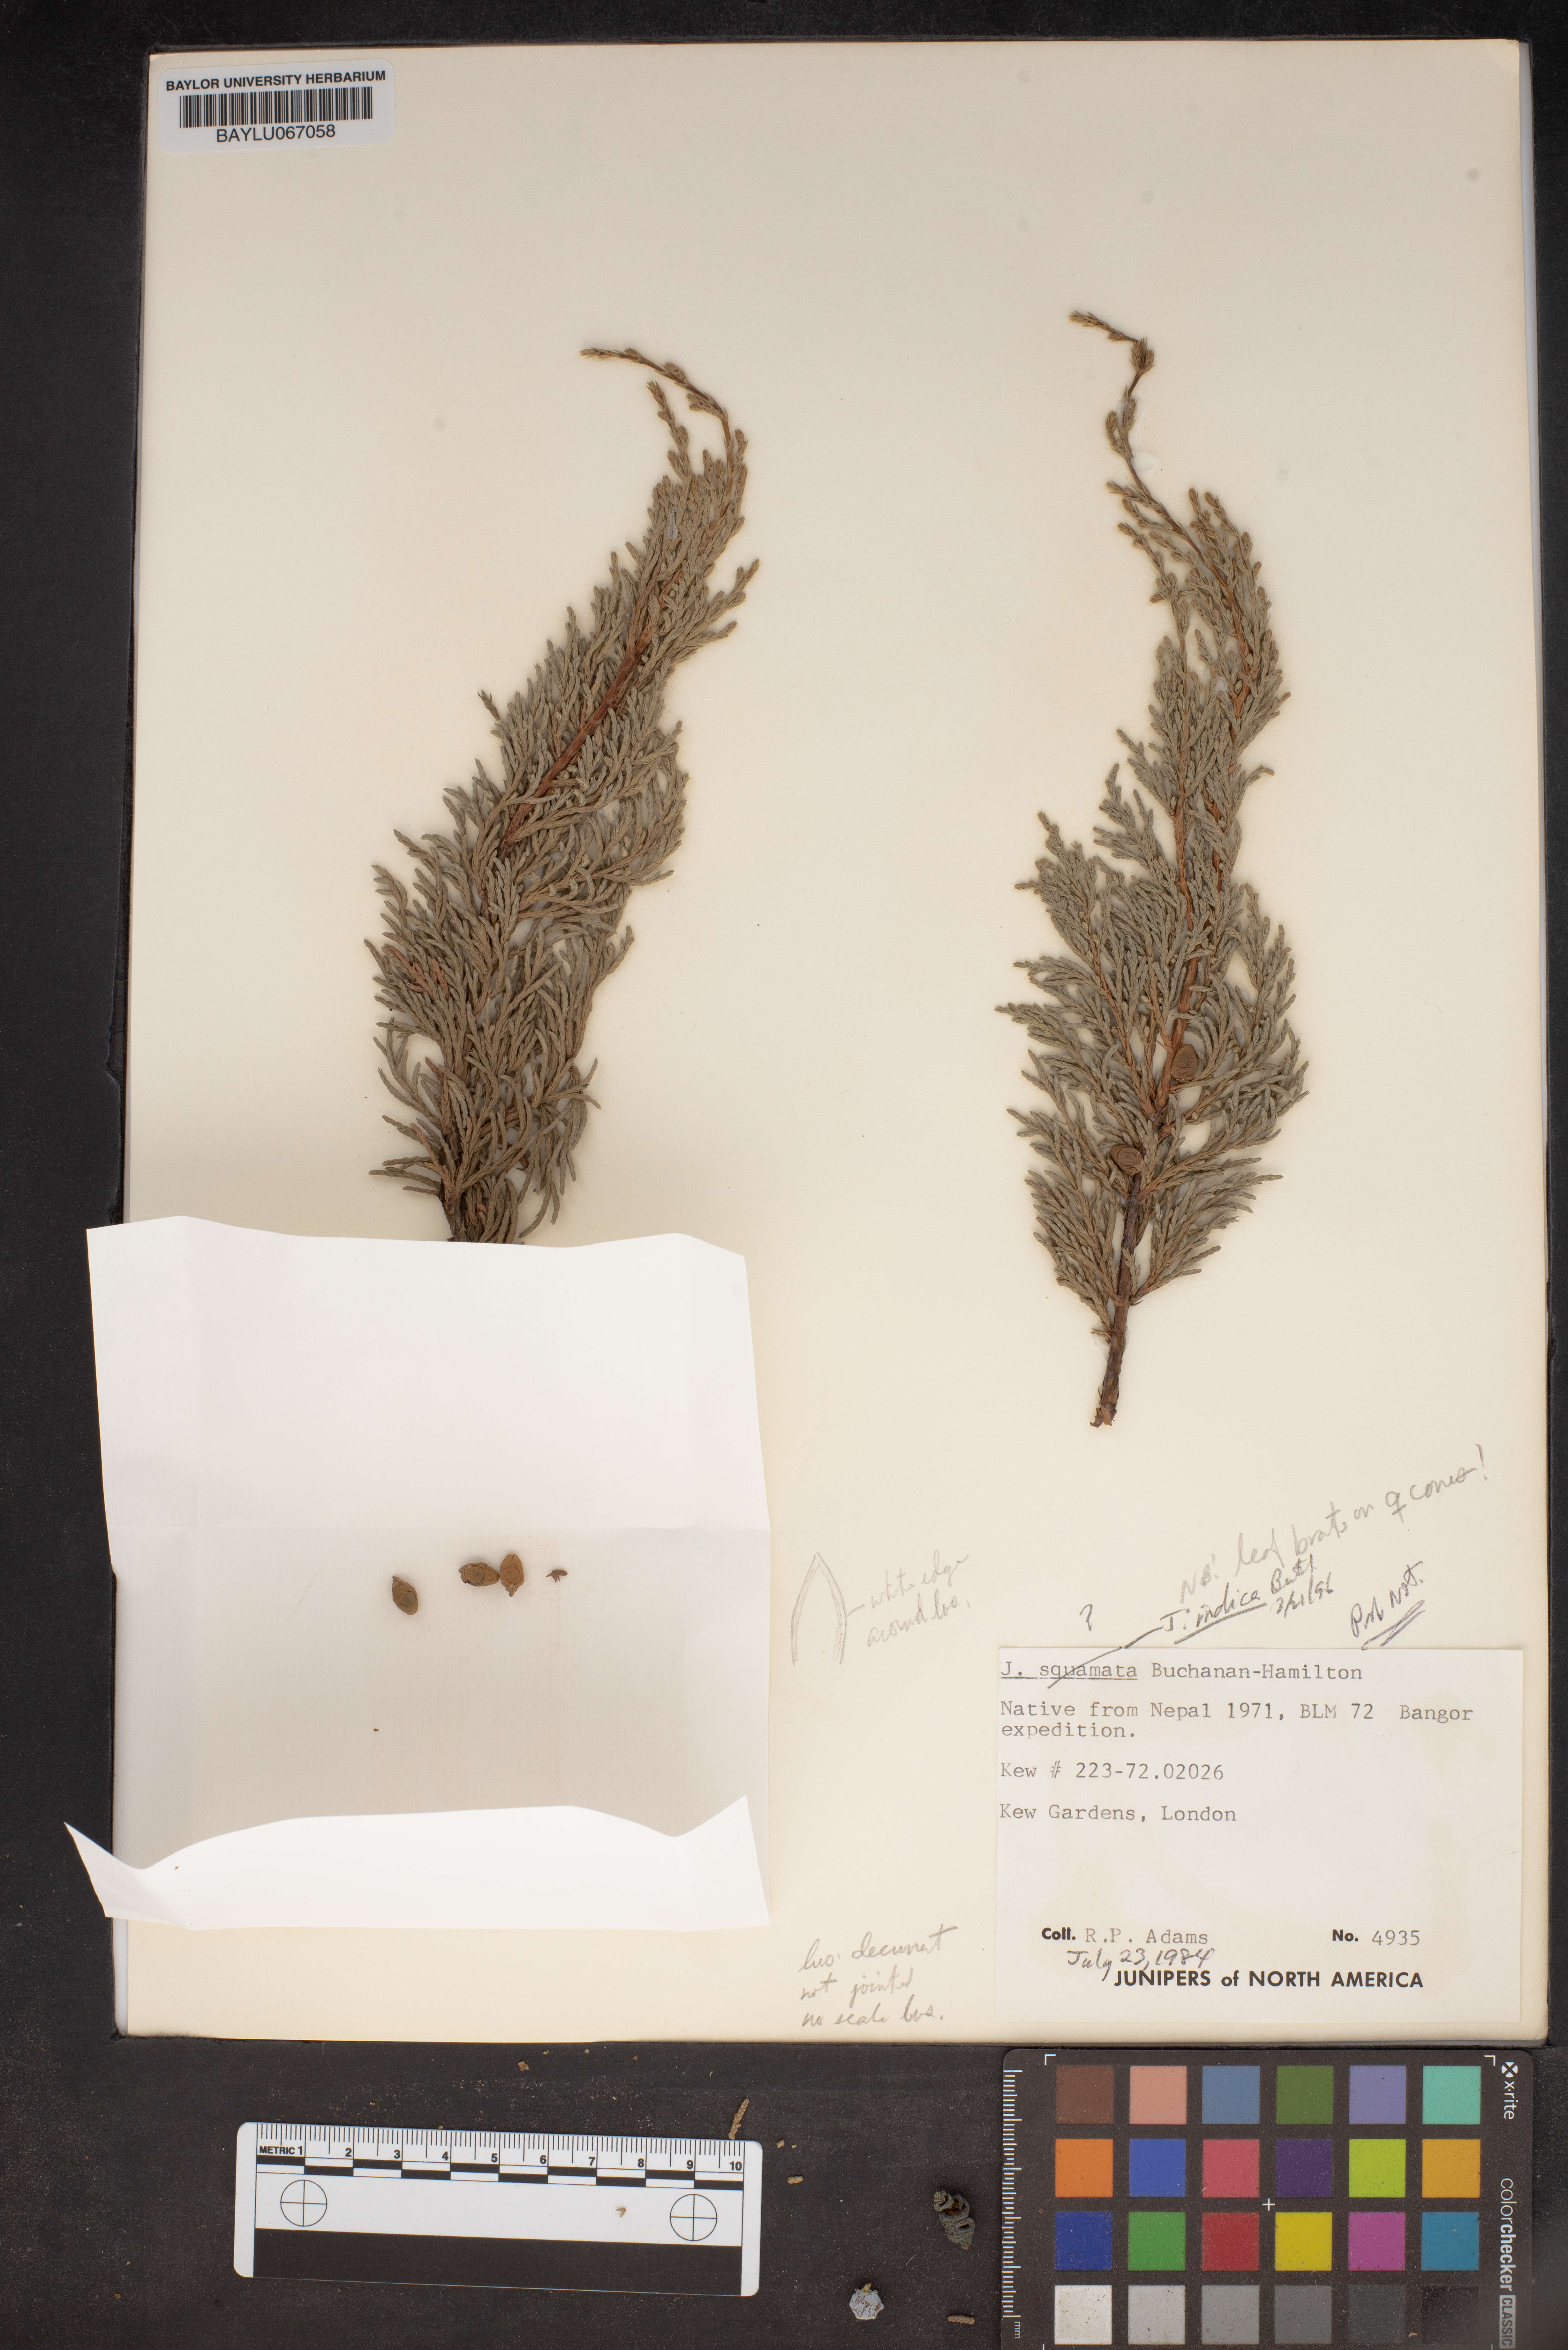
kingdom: Plantae
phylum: Tracheophyta
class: Pinopsida
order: Pinales
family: Cupressaceae
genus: Juniperus
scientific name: Juniperus indica
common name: Black juniper
